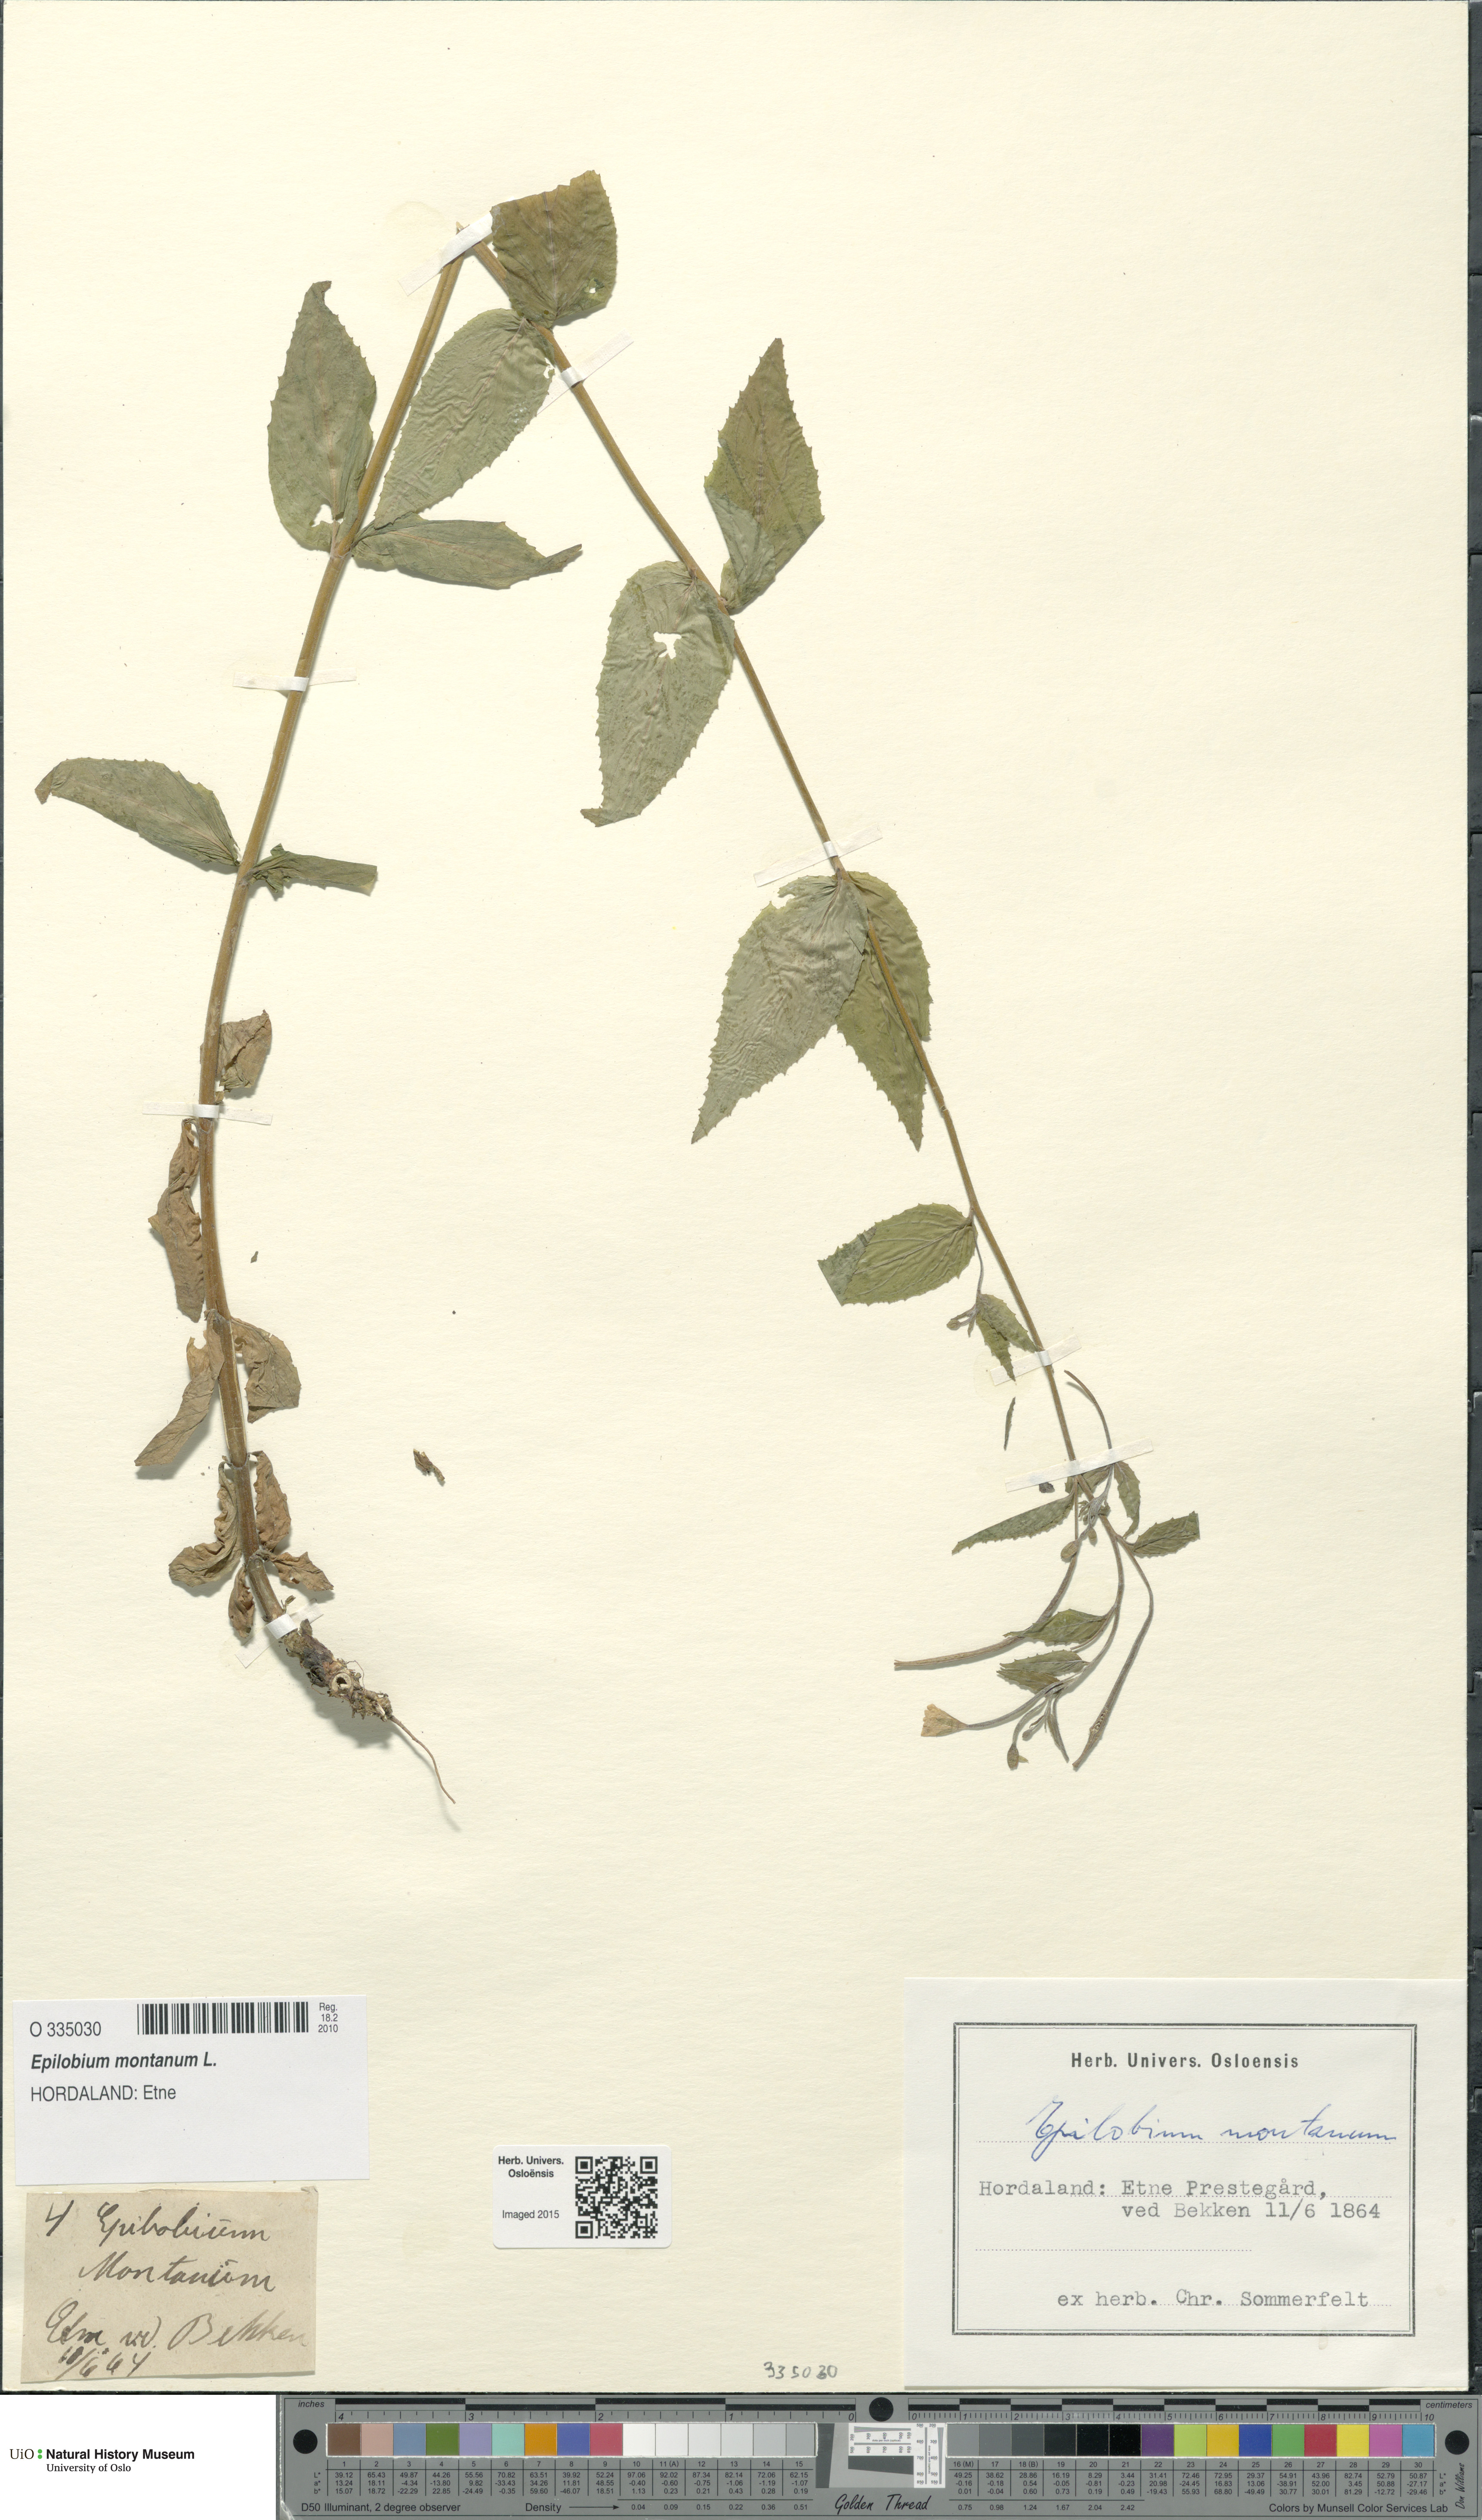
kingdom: Plantae
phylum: Tracheophyta
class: Magnoliopsida
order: Myrtales
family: Onagraceae
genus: Epilobium
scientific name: Epilobium montanum
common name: Broad-leaved willowherb
